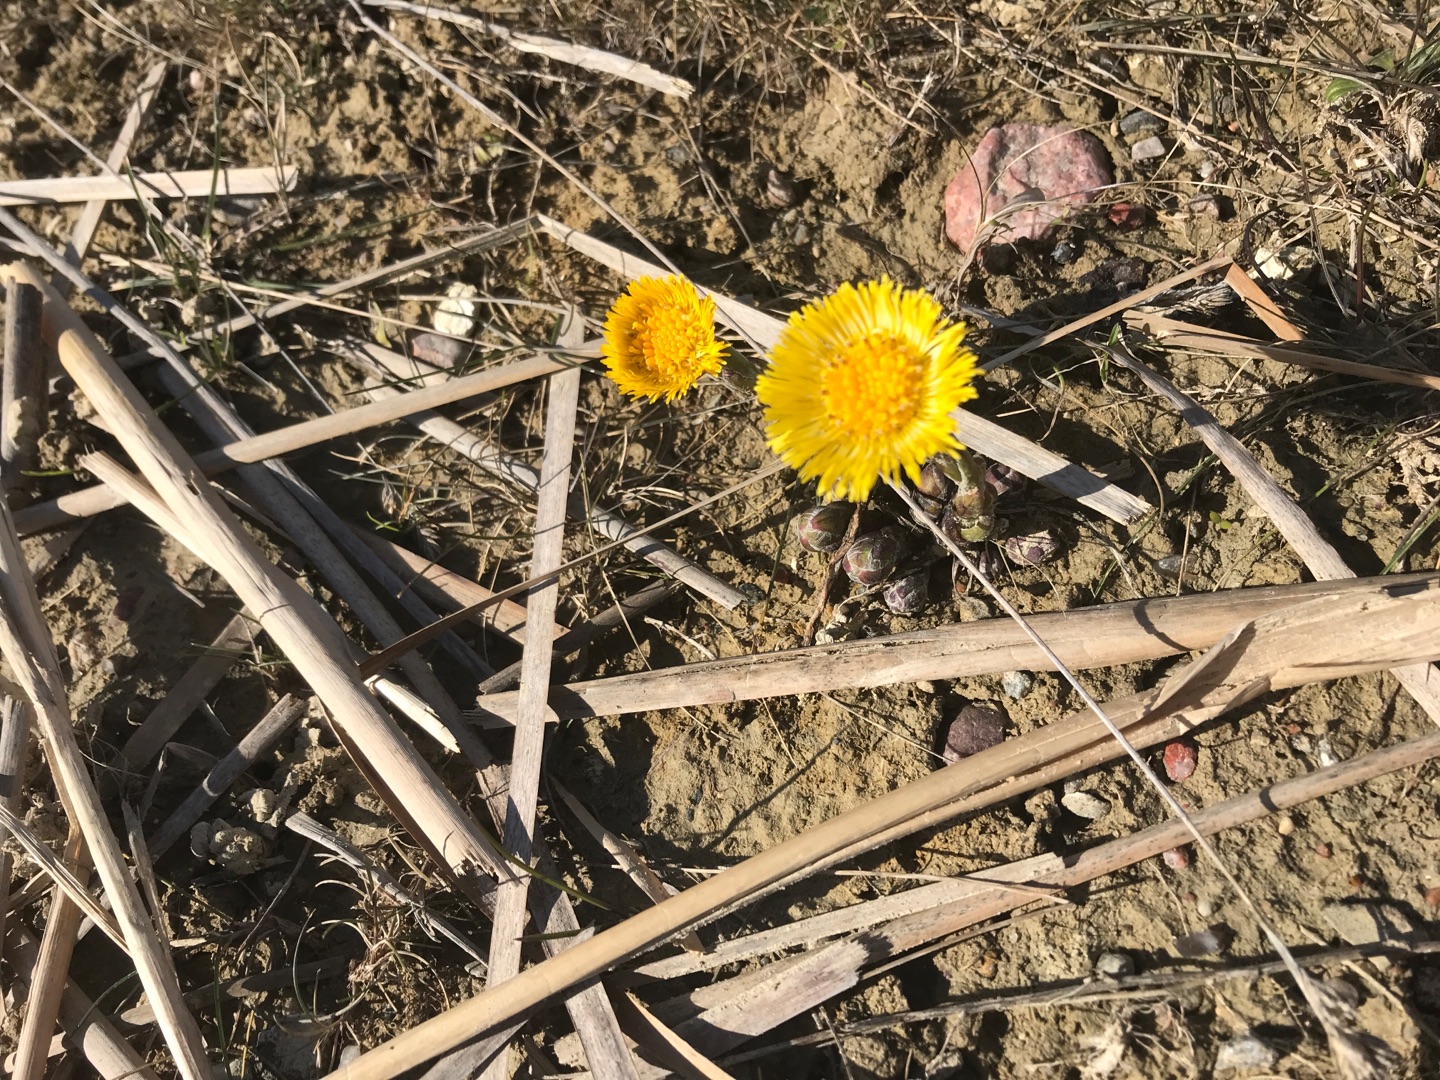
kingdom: Plantae
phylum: Tracheophyta
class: Magnoliopsida
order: Asterales
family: Asteraceae
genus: Tussilago
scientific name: Tussilago farfara
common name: Følfod
